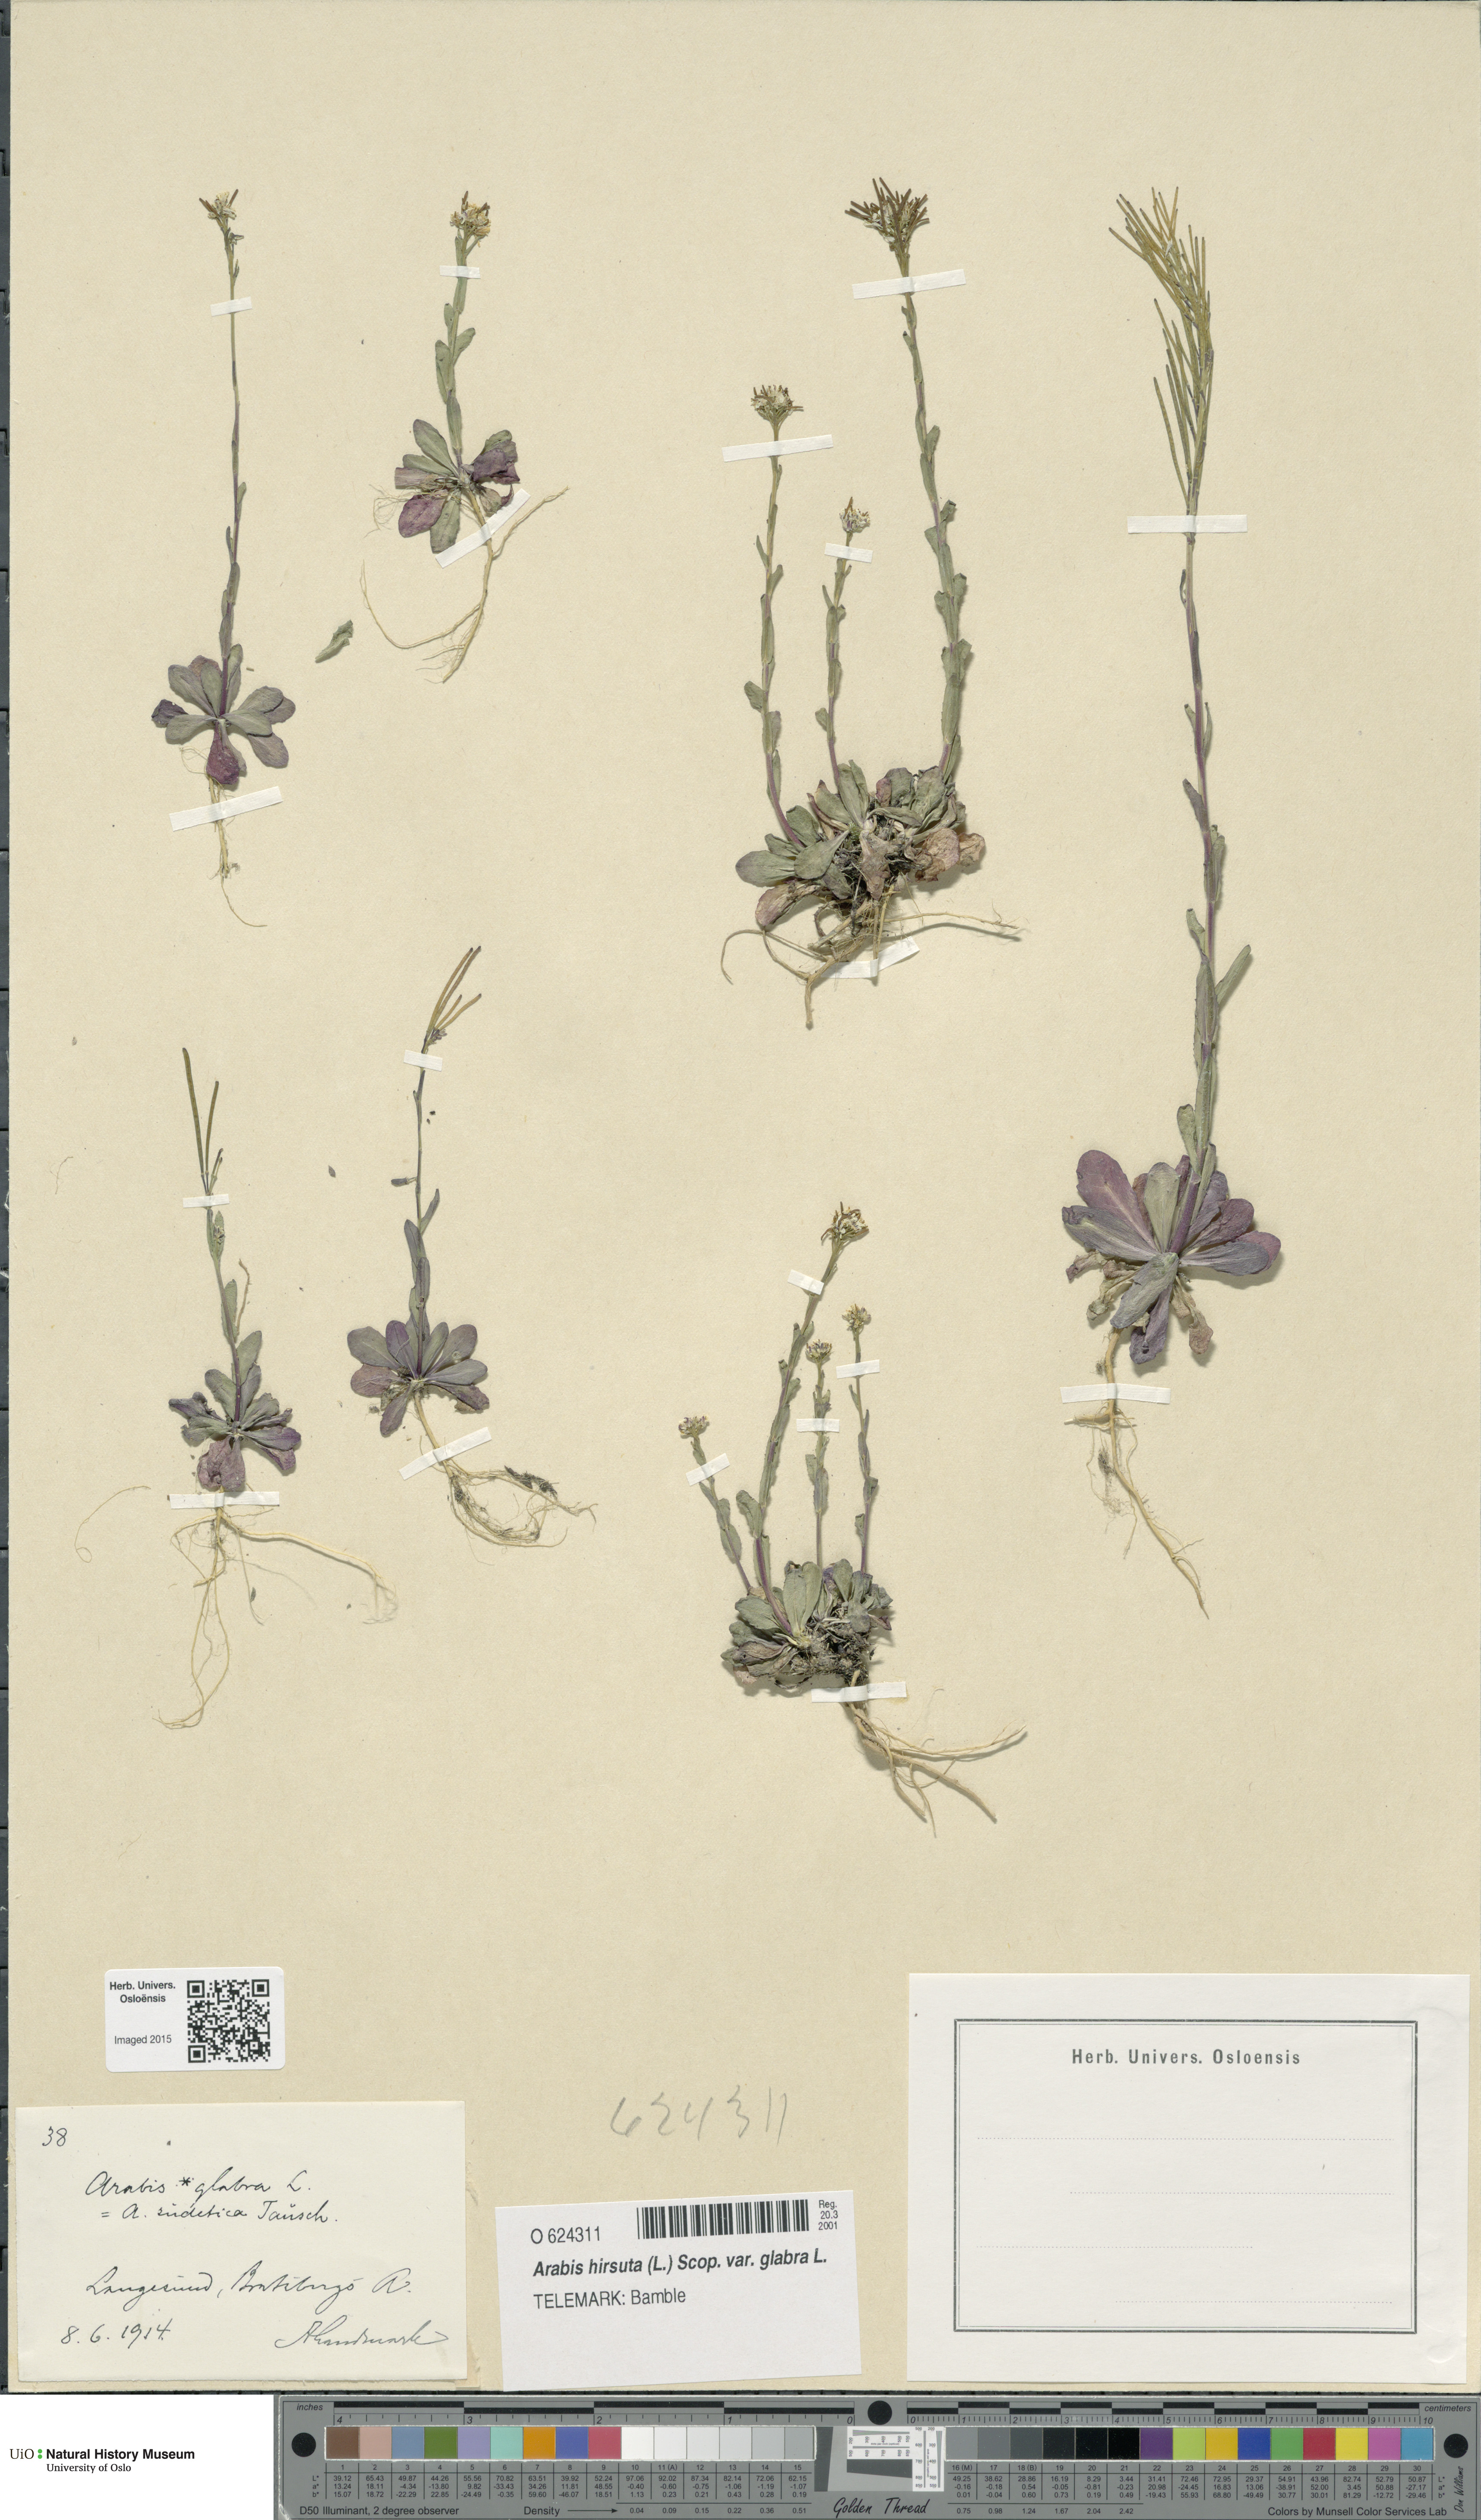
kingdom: Plantae
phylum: Tracheophyta
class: Magnoliopsida
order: Brassicales
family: Brassicaceae
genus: Arabis
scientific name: Arabis hirsuta
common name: Hairy rock-cress
